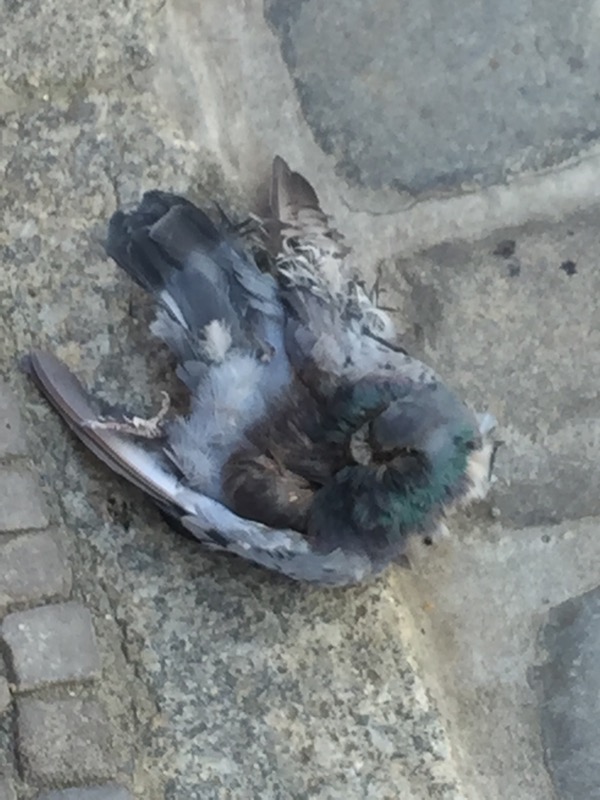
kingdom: Animalia
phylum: Chordata
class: Aves
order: Columbiformes
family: Columbidae
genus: Columba
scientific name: Columba livia
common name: Rock pigeon
